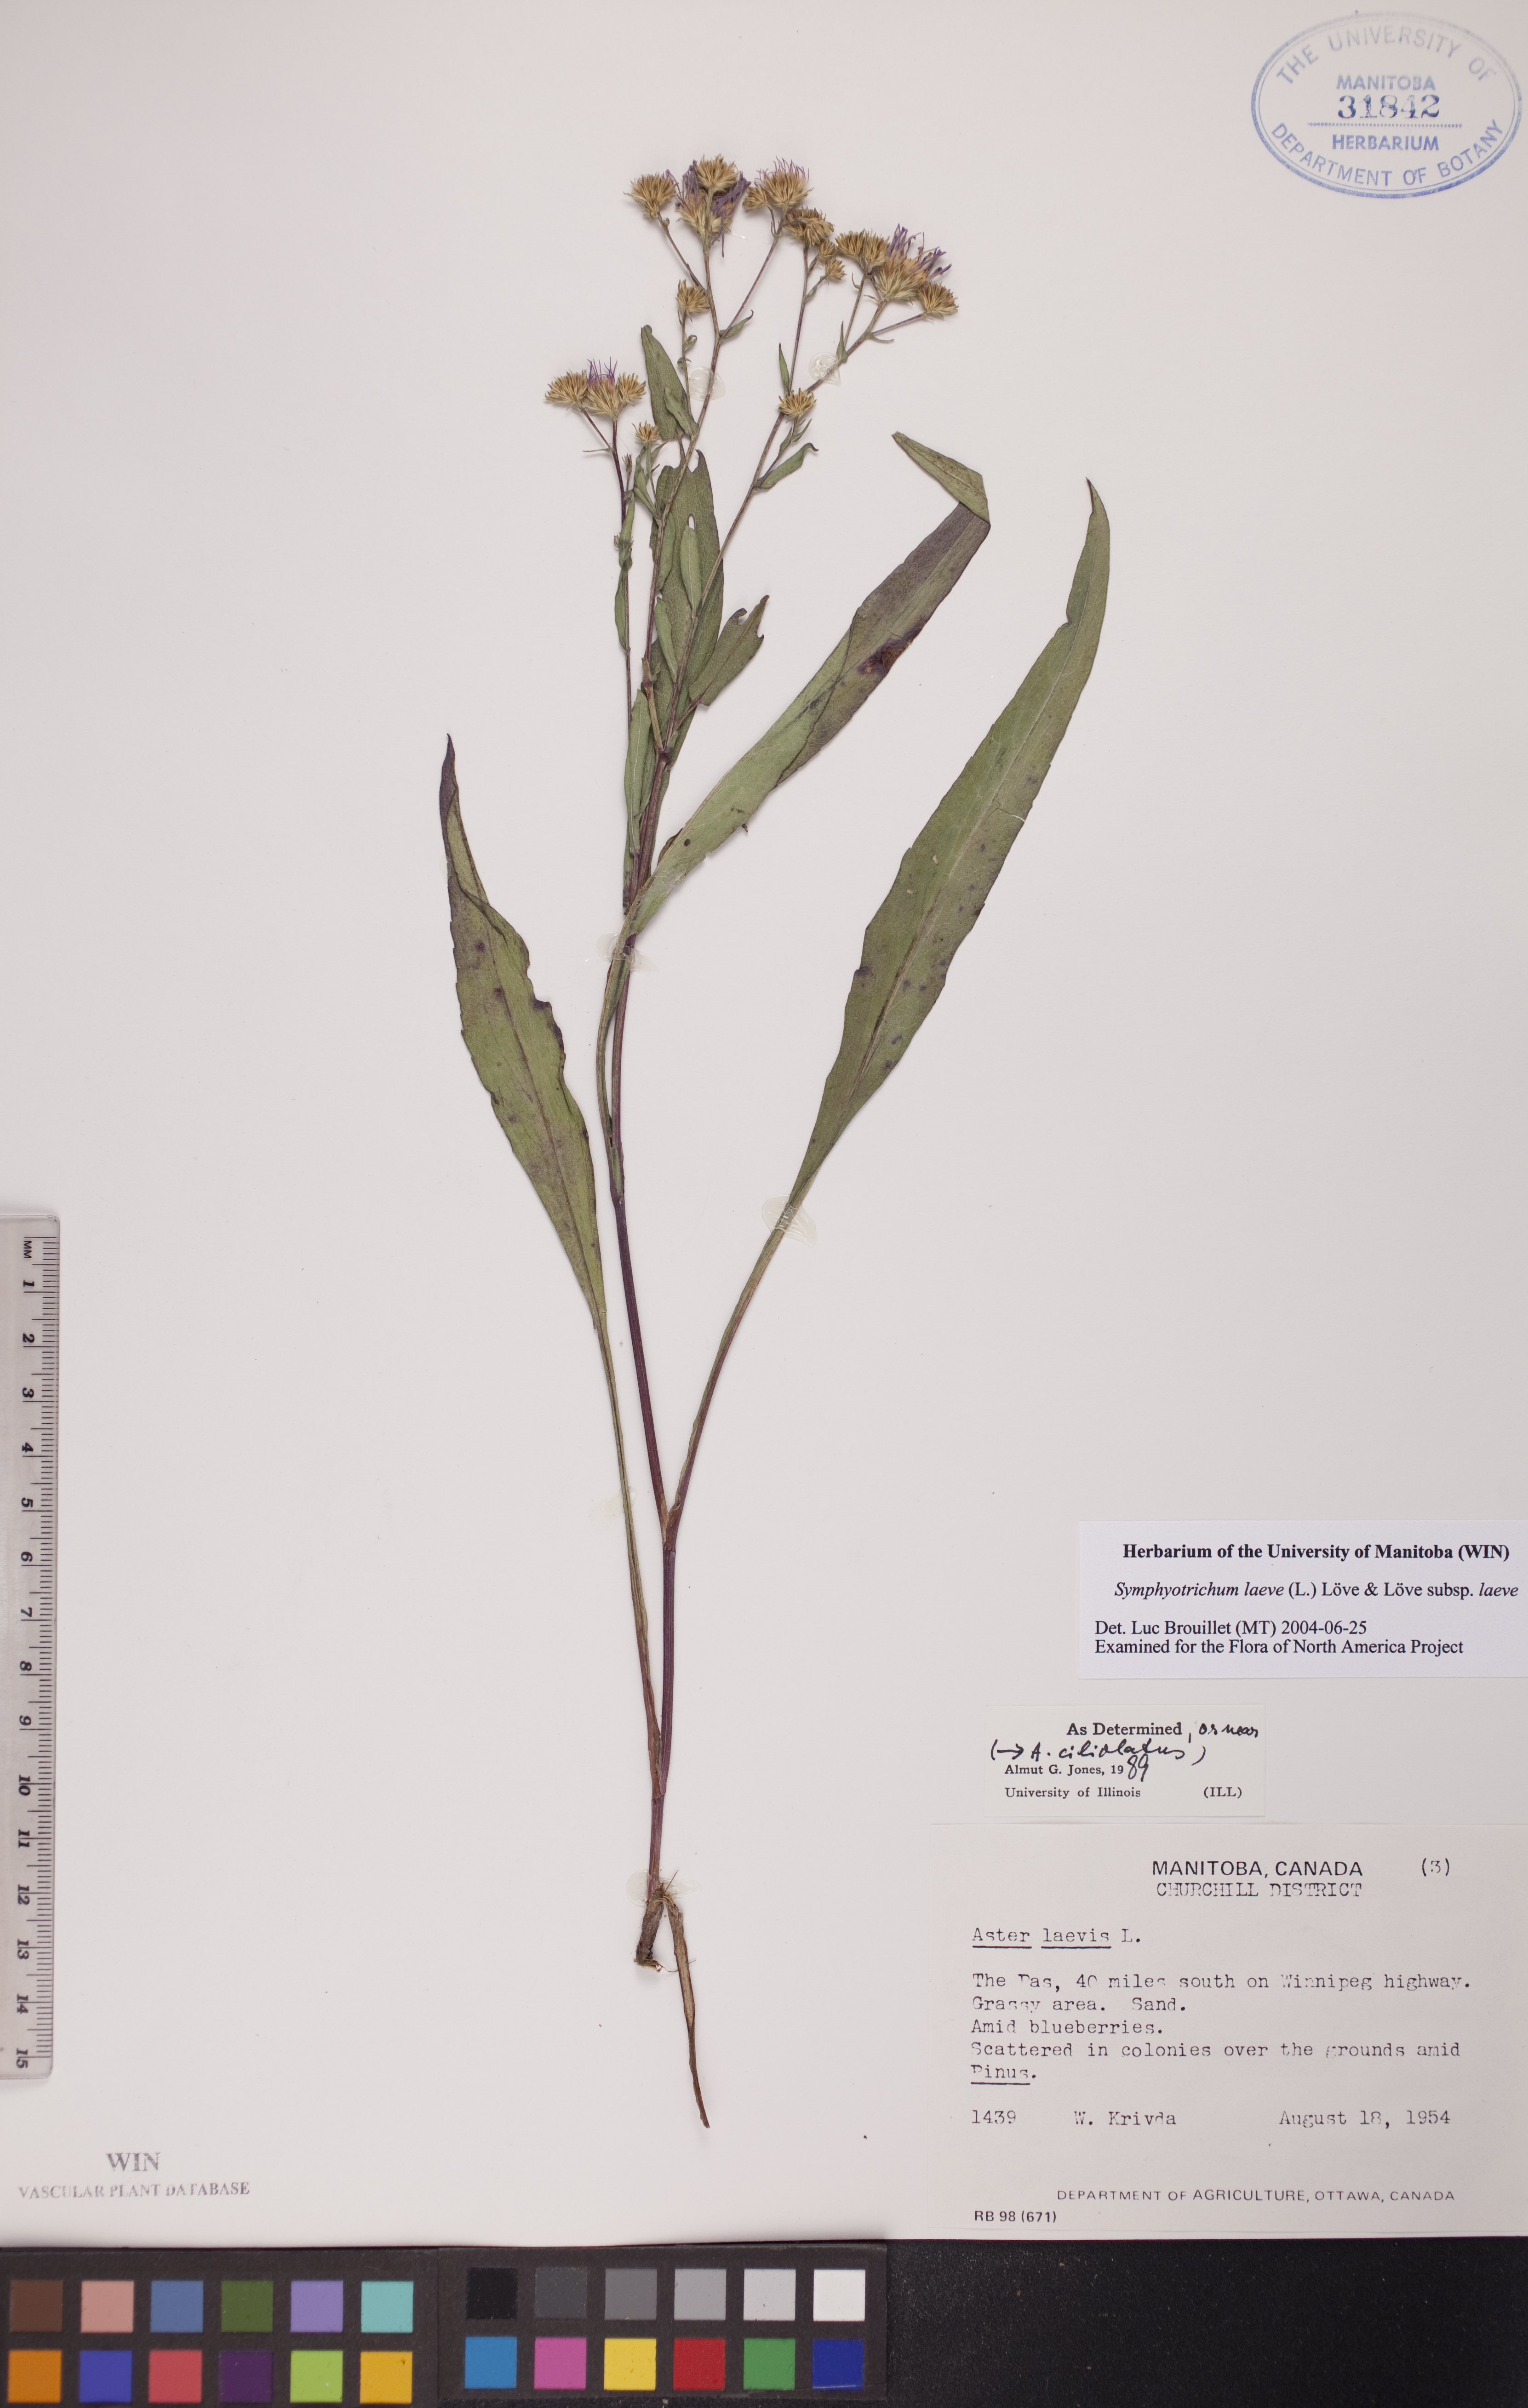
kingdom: Plantae
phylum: Tracheophyta
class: Magnoliopsida
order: Asterales
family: Asteraceae
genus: Symphyotrichum
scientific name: Symphyotrichum laeve
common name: Glaucous aster
